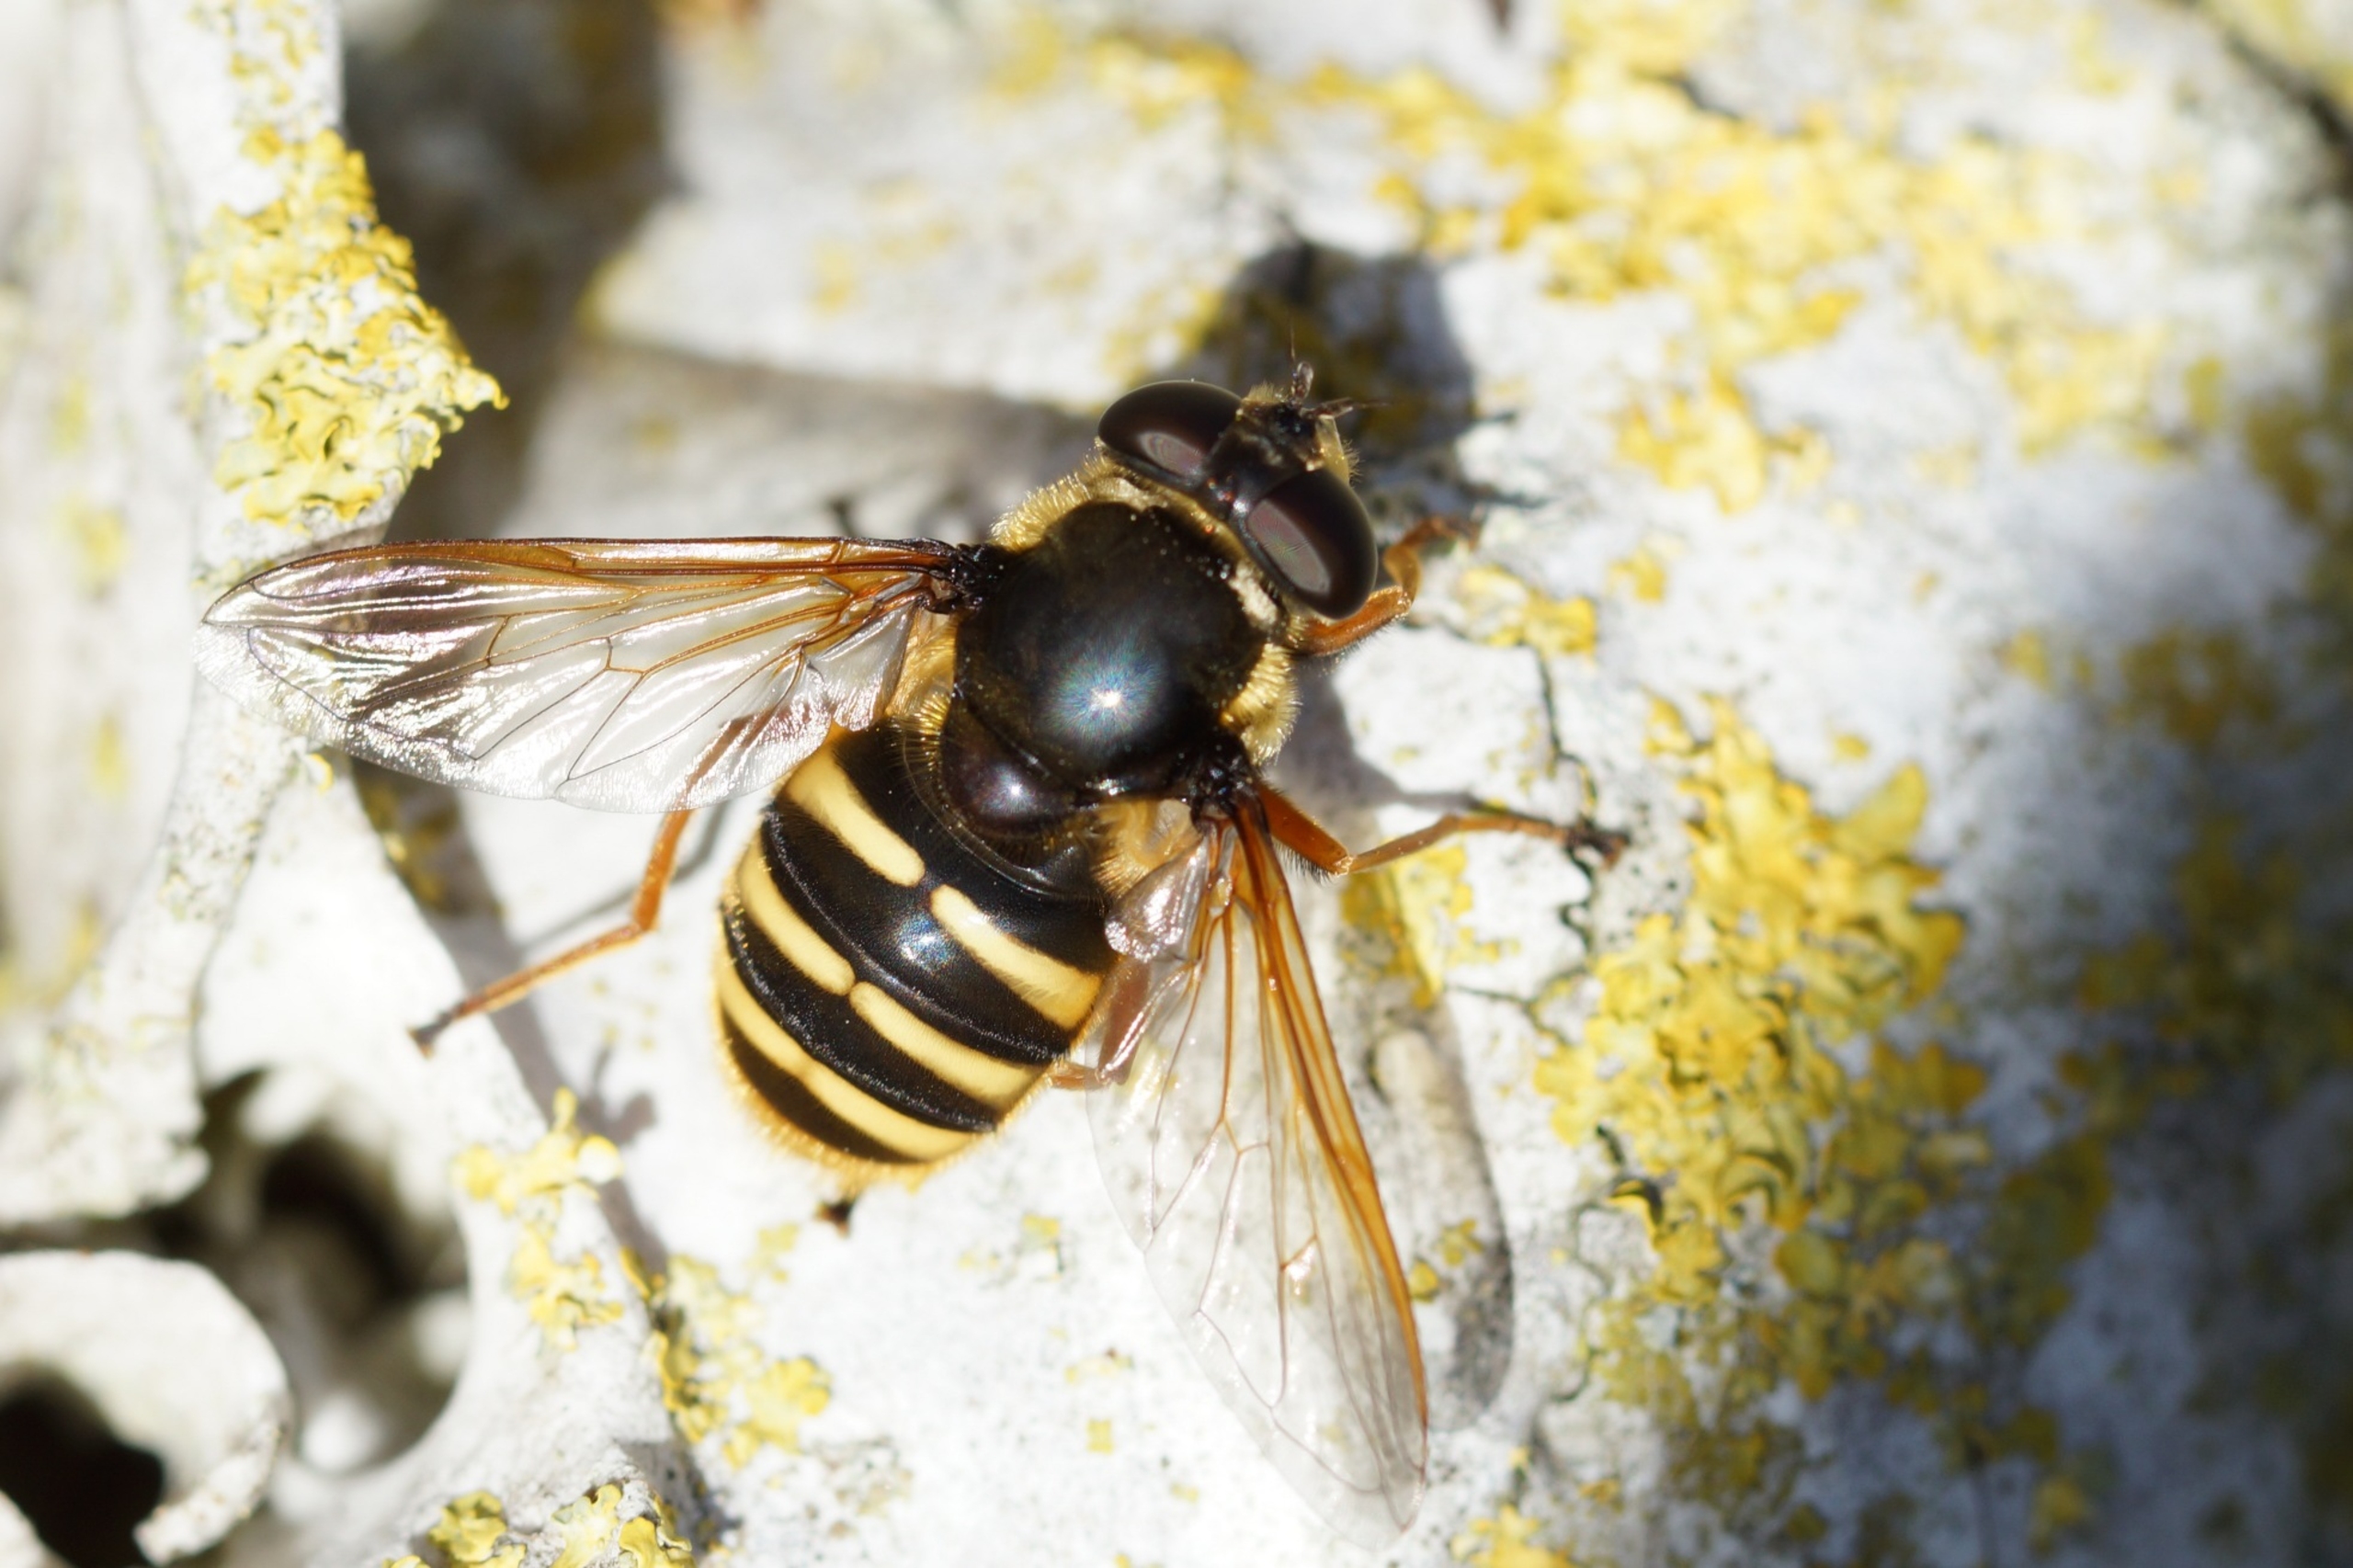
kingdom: Animalia
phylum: Arthropoda
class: Insecta
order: Diptera
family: Syrphidae
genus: Sericomyia
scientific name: Sericomyia silentis
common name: Tørve-silkesvirreflue
